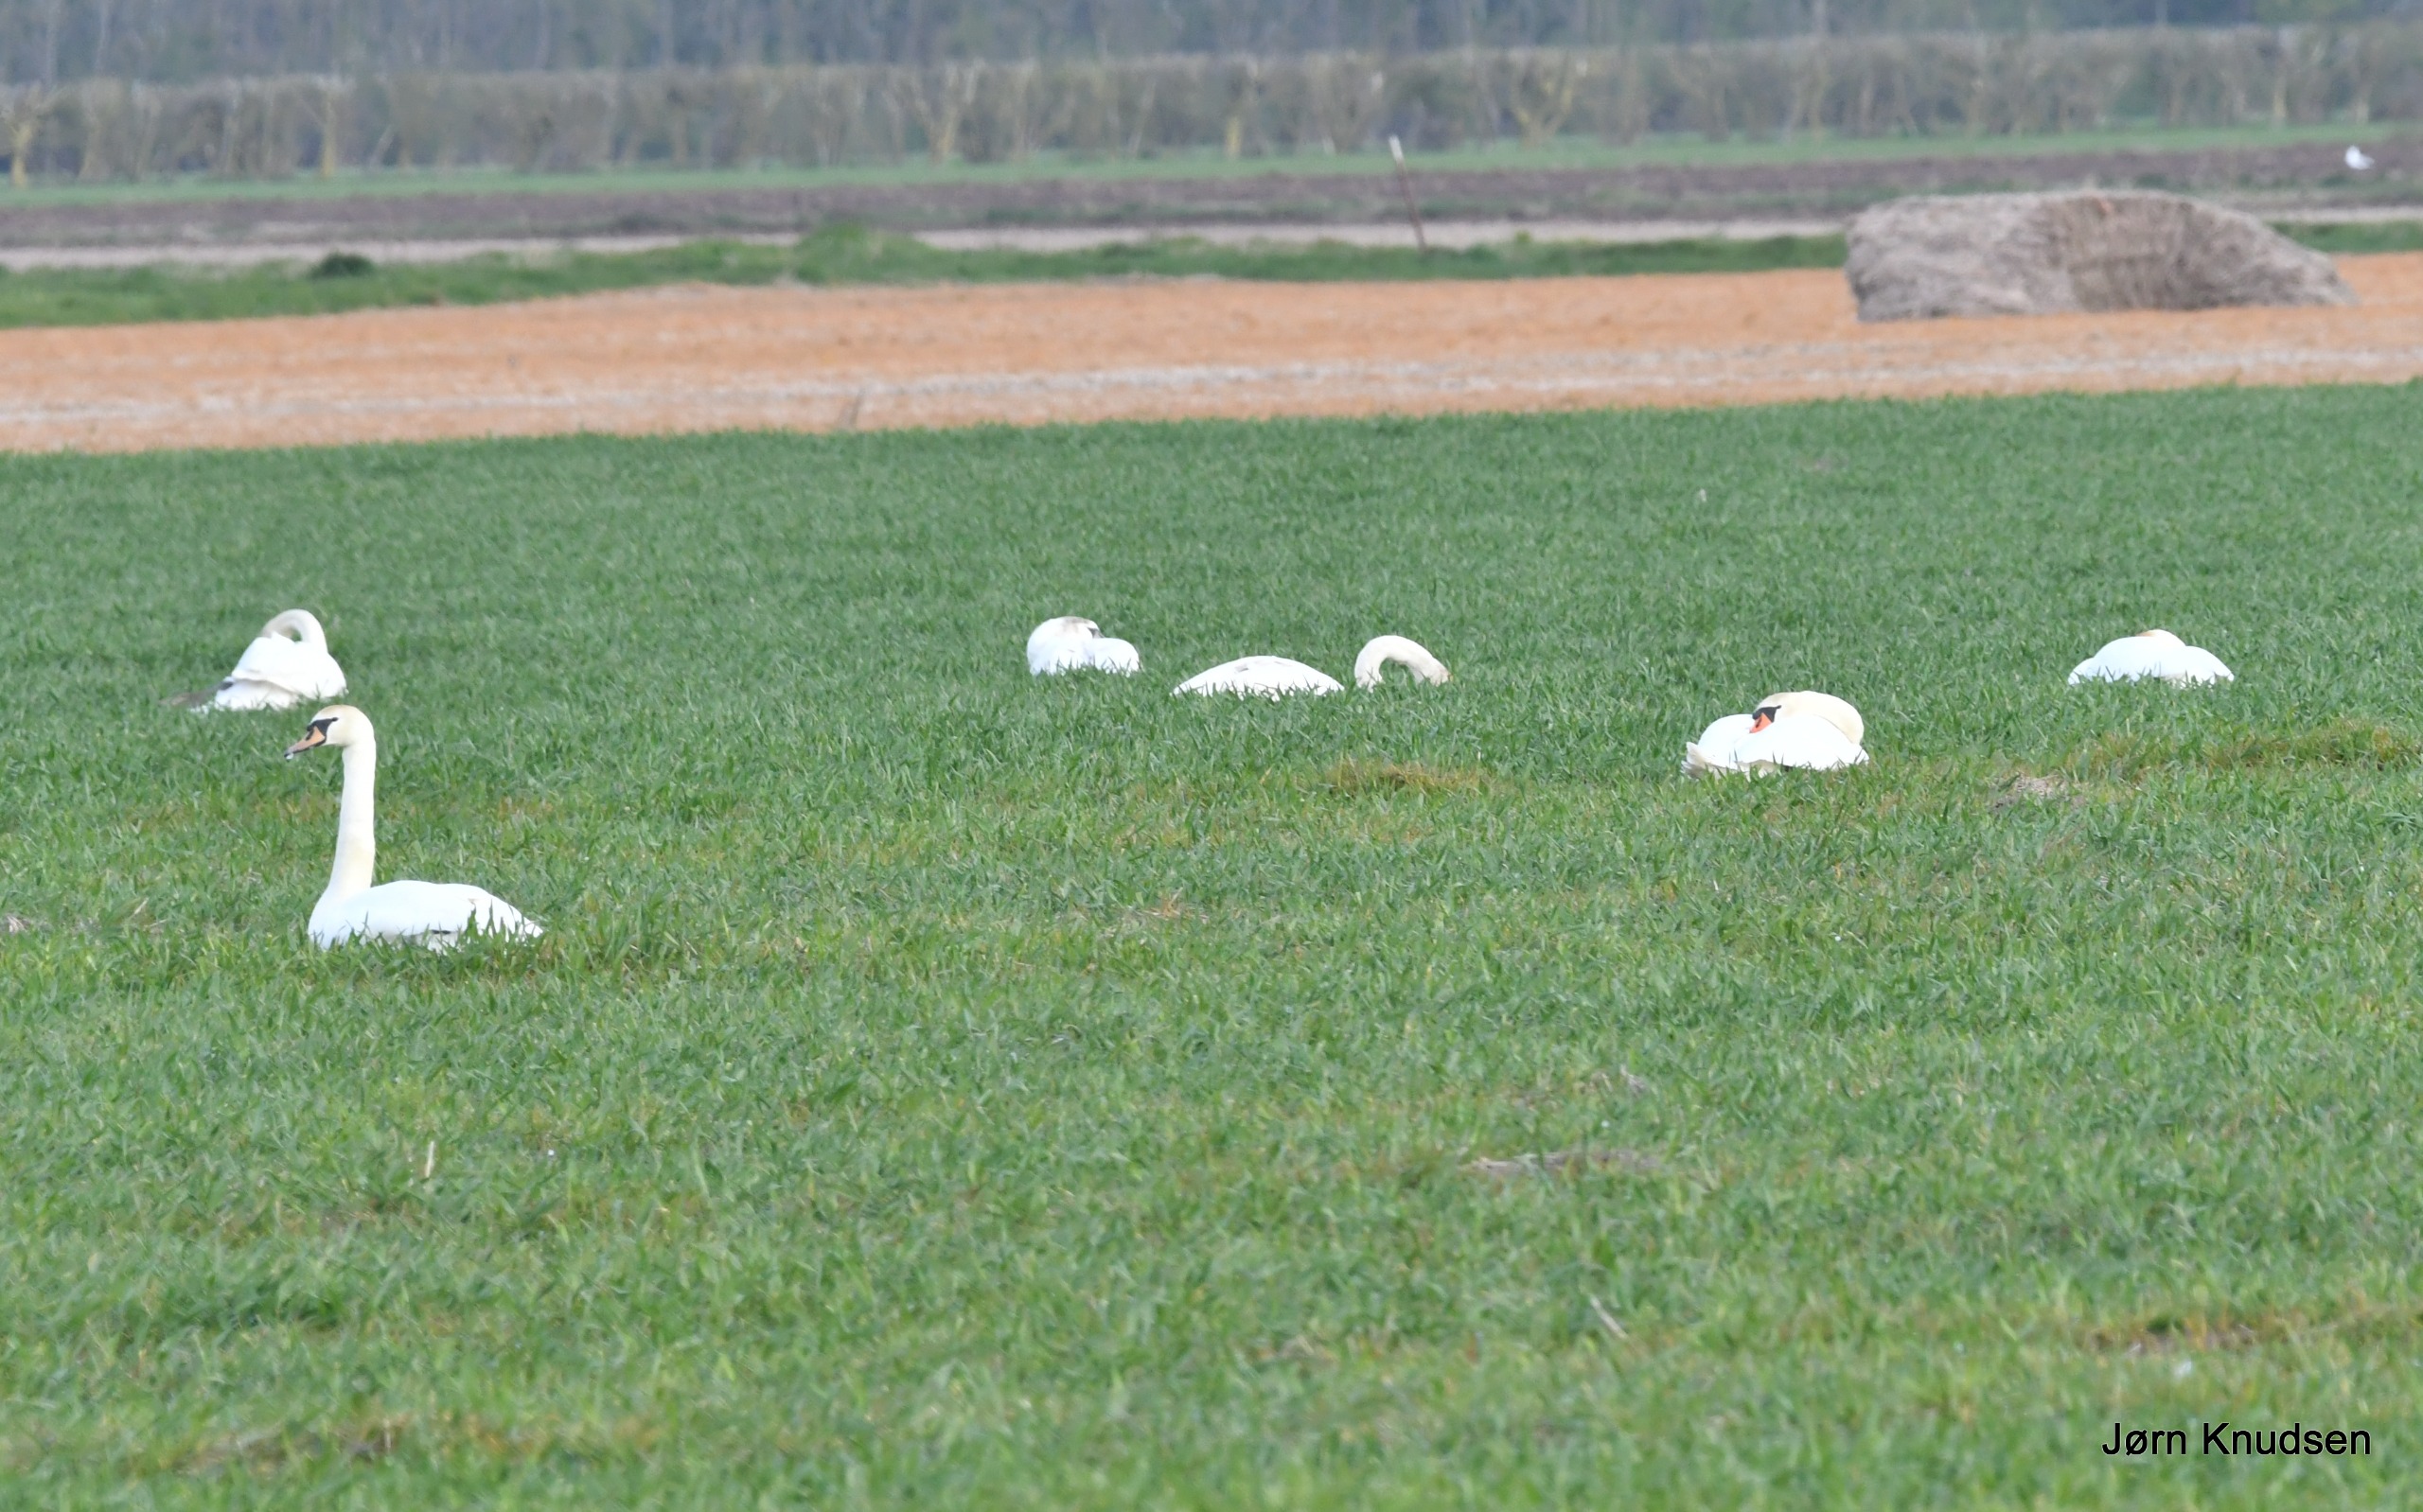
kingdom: Animalia
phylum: Chordata
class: Aves
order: Anseriformes
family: Anatidae
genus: Cygnus
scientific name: Cygnus olor
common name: Knopsvane
